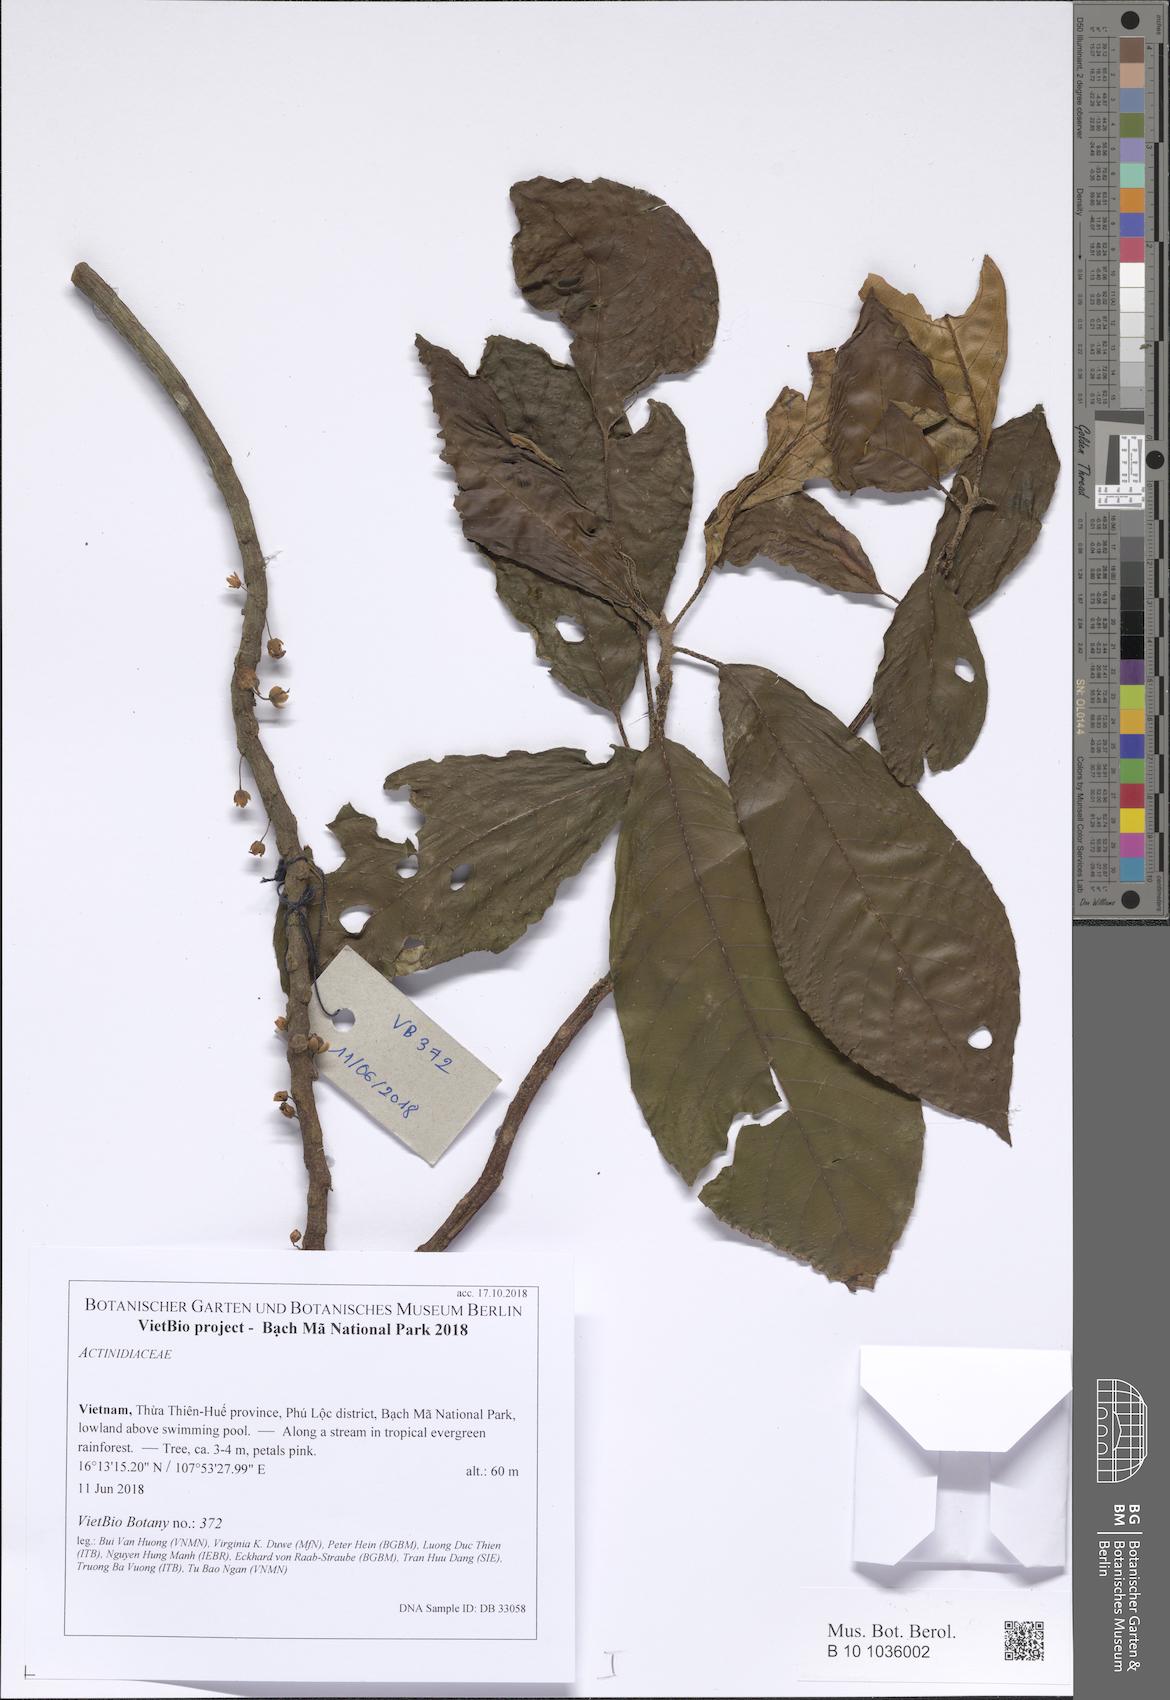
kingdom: Plantae
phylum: Tracheophyta
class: Magnoliopsida
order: Ericales
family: Actinidiaceae
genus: Saurauia
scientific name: Saurauia roxburghii
